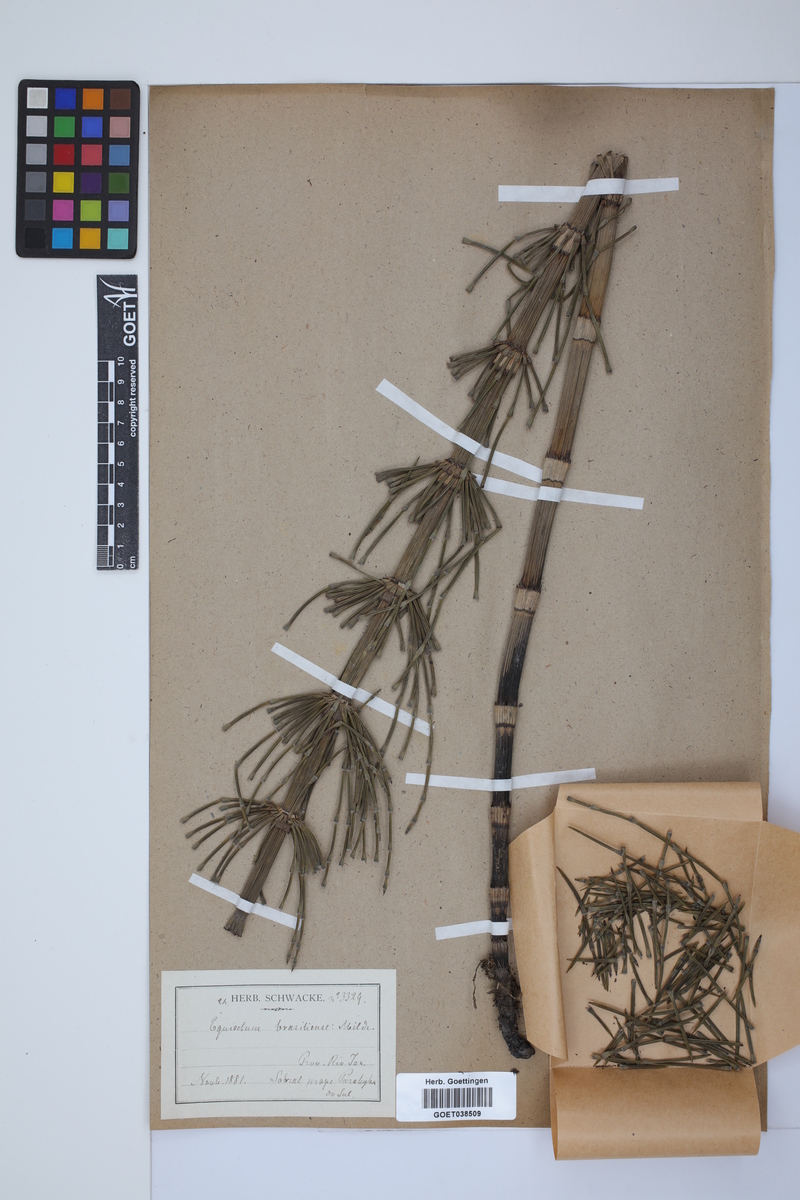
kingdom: Plantae
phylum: Tracheophyta
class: Polypodiopsida
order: Equisetales
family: Equisetaceae
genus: Equisetum
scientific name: Equisetum giganteum
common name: Giant horsetail
